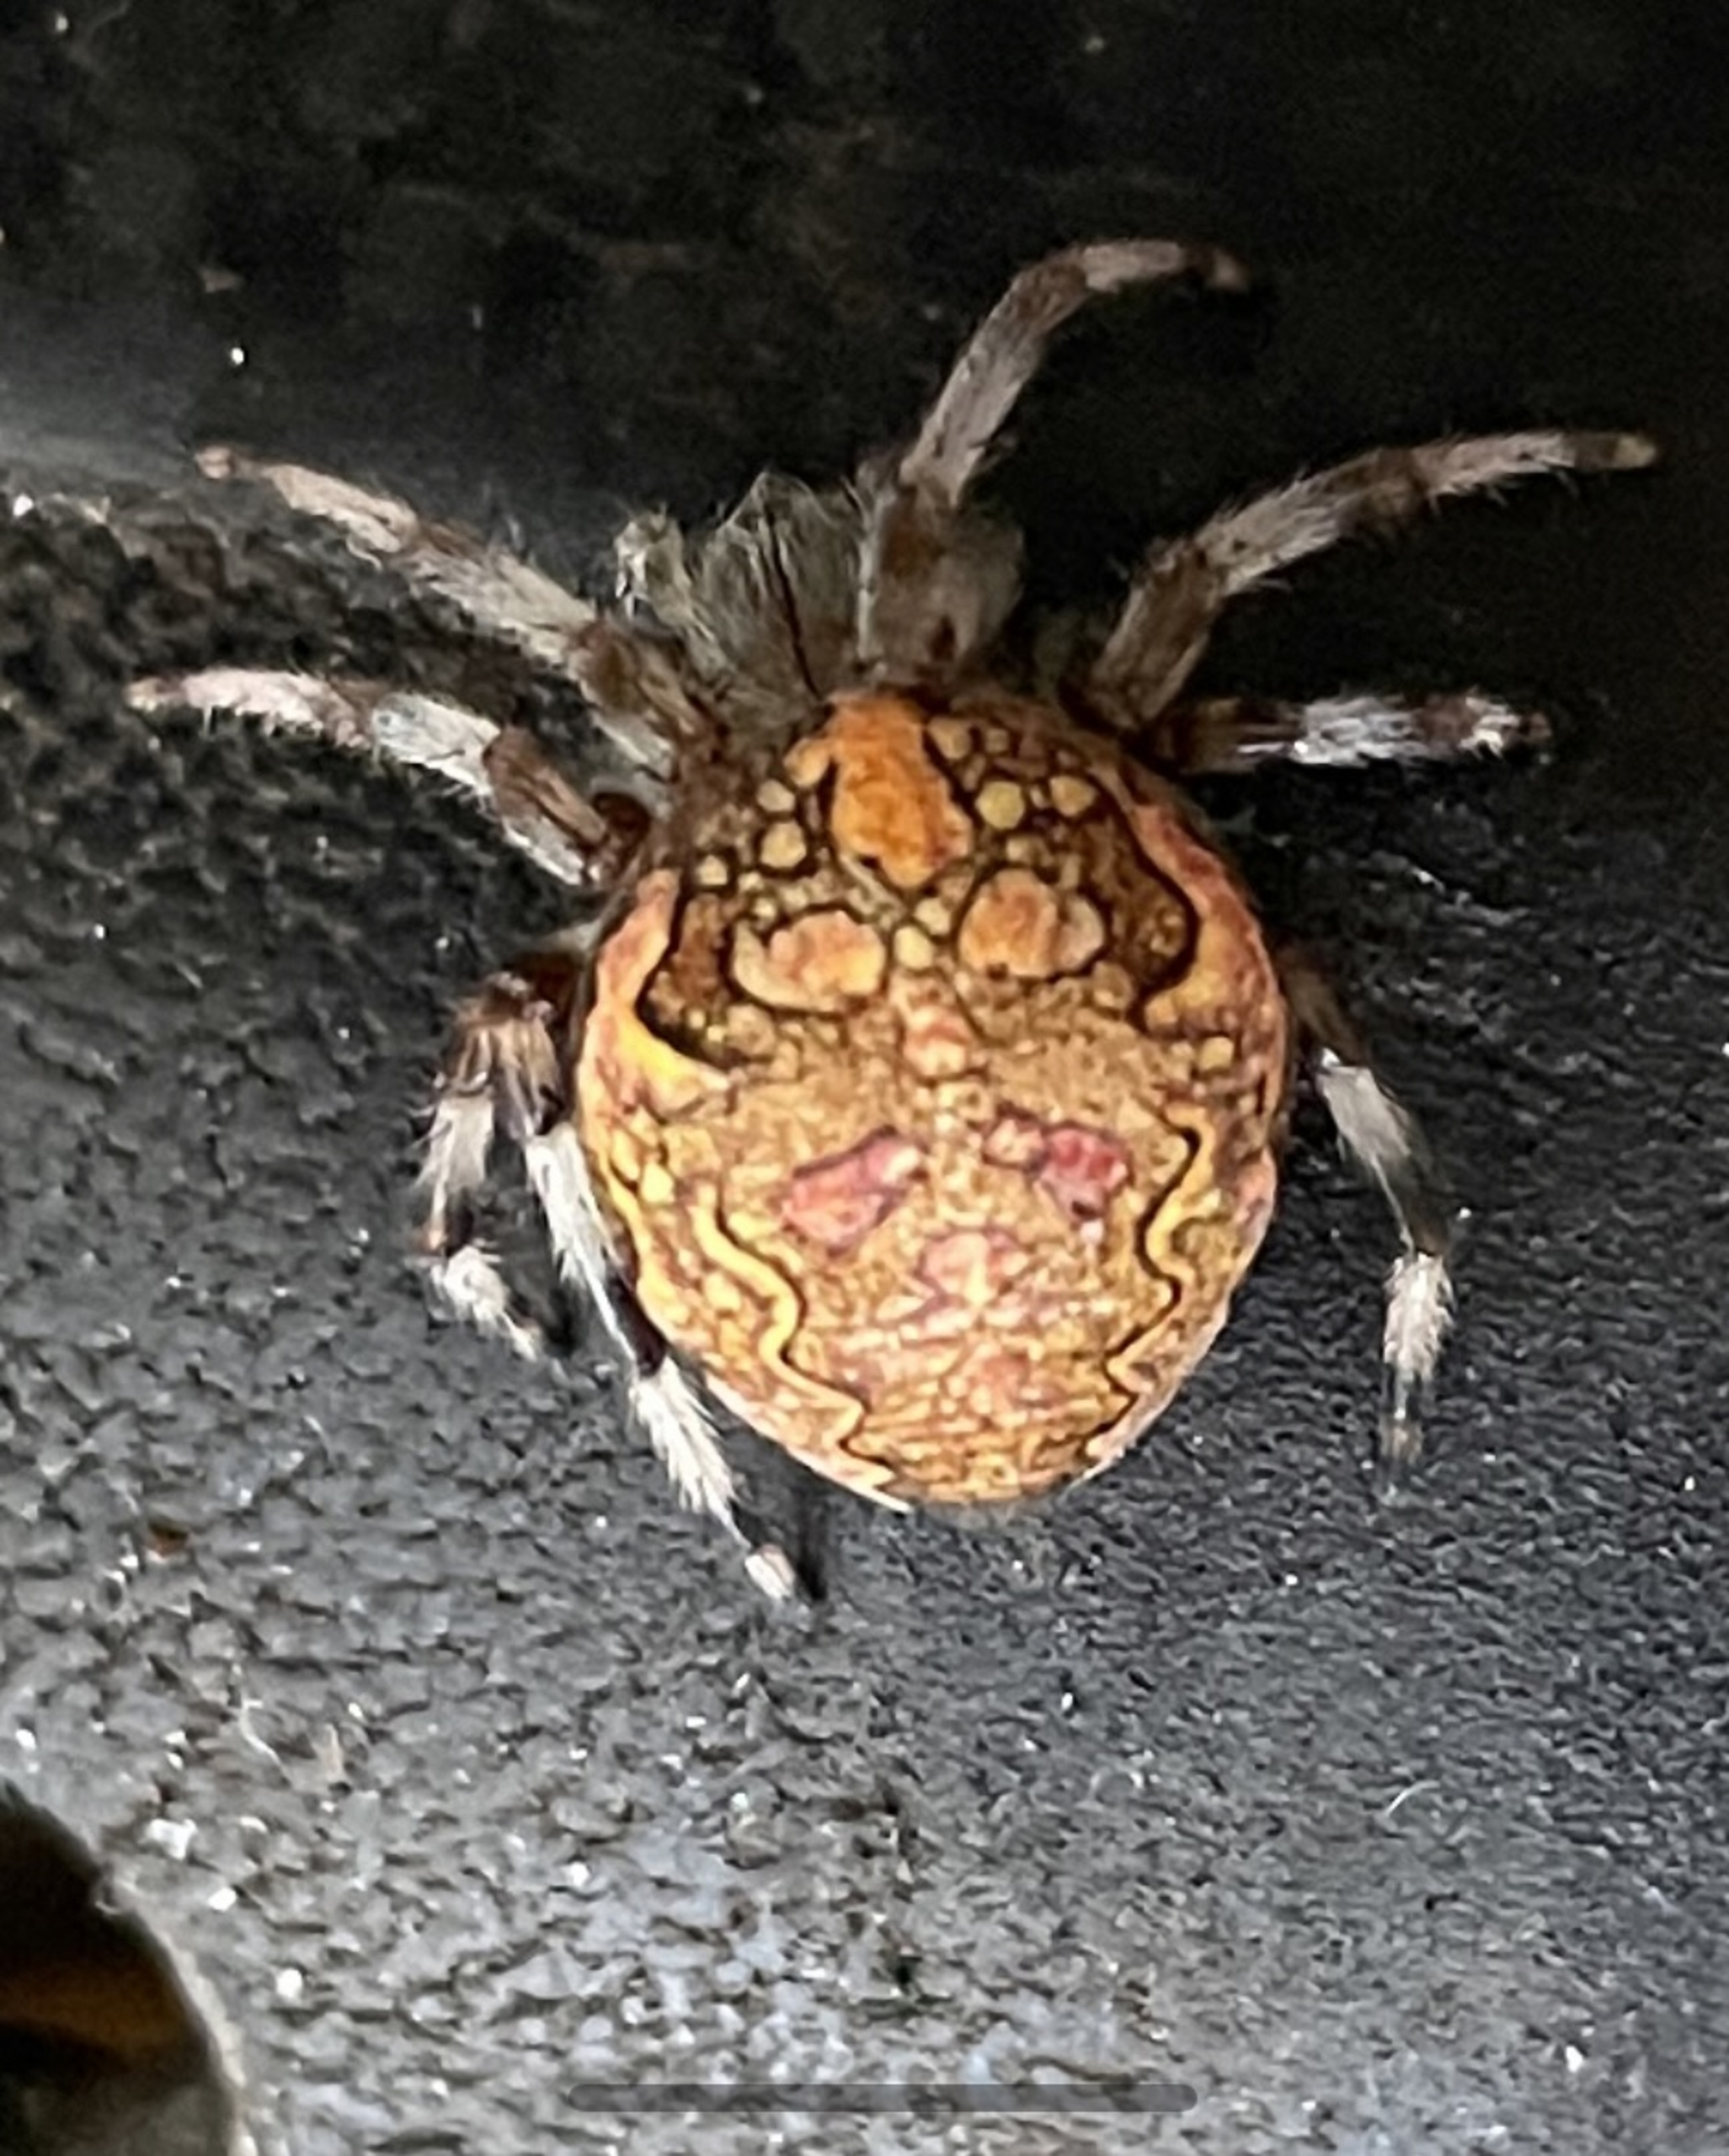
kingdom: Animalia
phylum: Arthropoda
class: Arachnida
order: Araneae
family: Araneidae
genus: Araneus
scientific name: Araneus marmoreus
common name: Marmoreret hjulspinder
